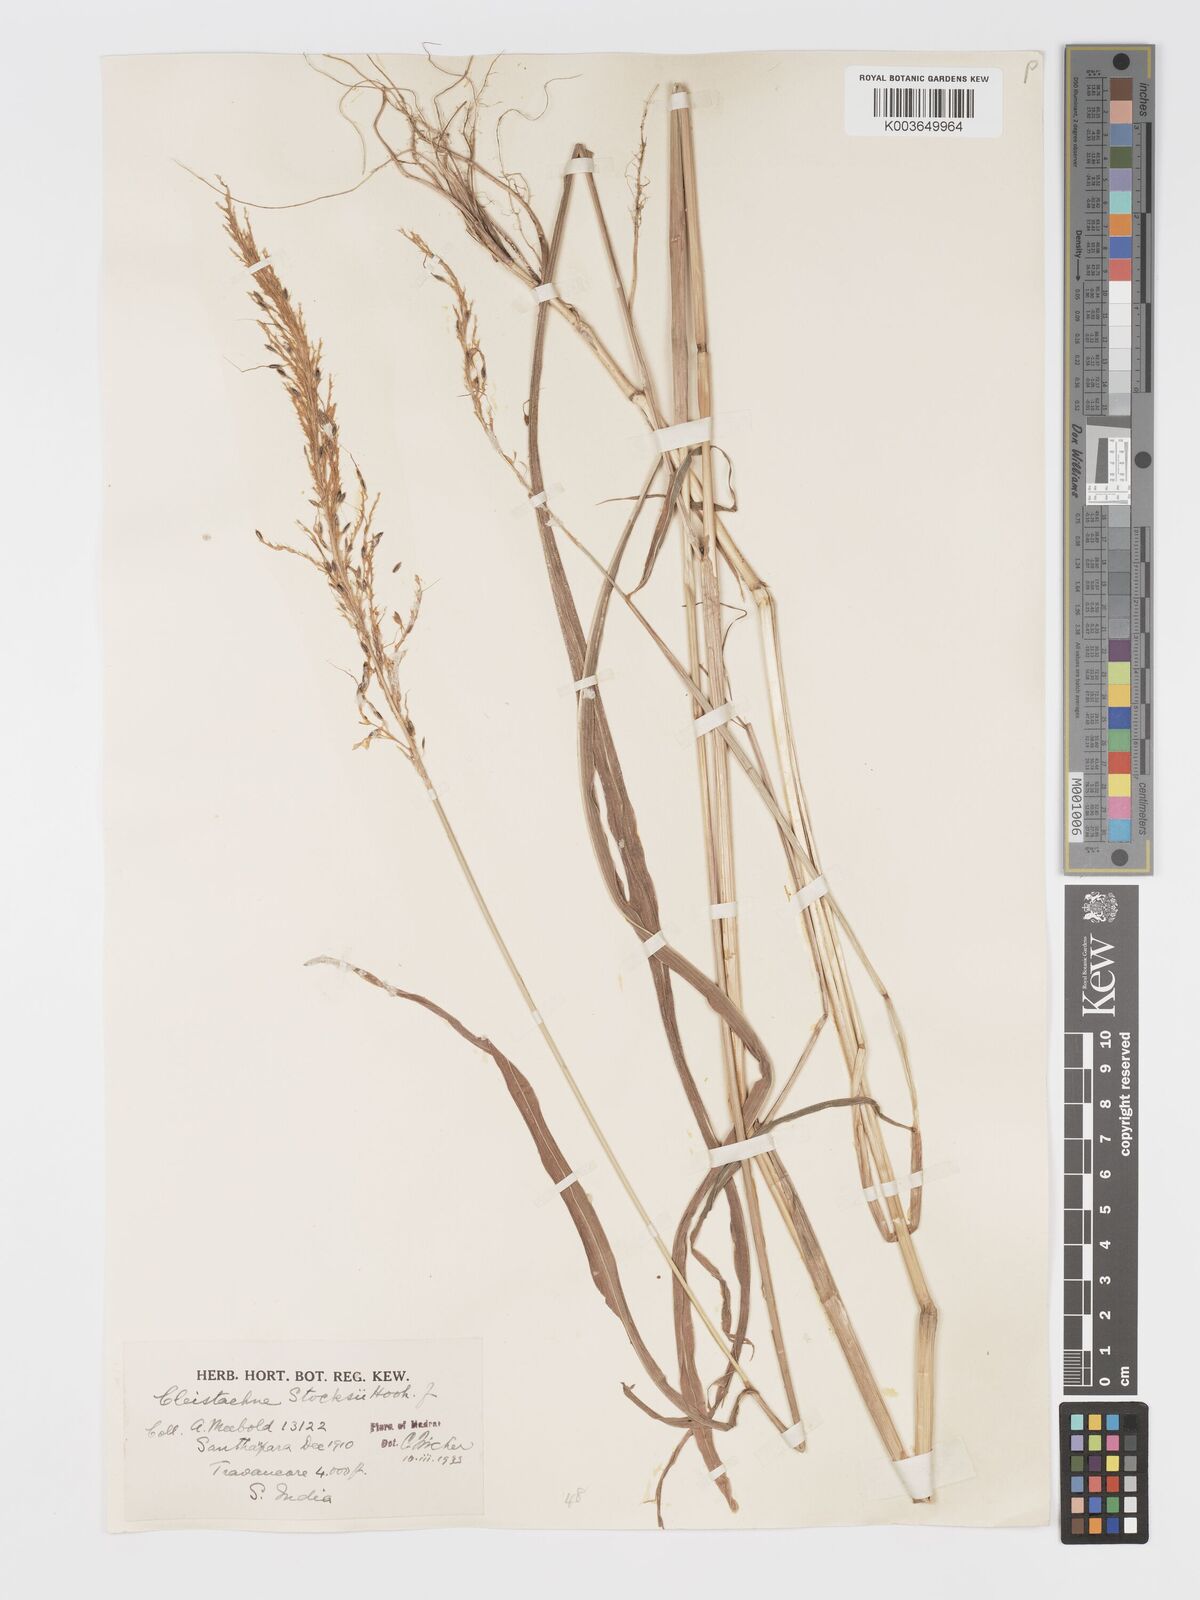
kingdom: Plantae
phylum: Tracheophyta
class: Liliopsida
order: Poales
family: Poaceae
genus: Cleistachne
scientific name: Cleistachne sorghoides
